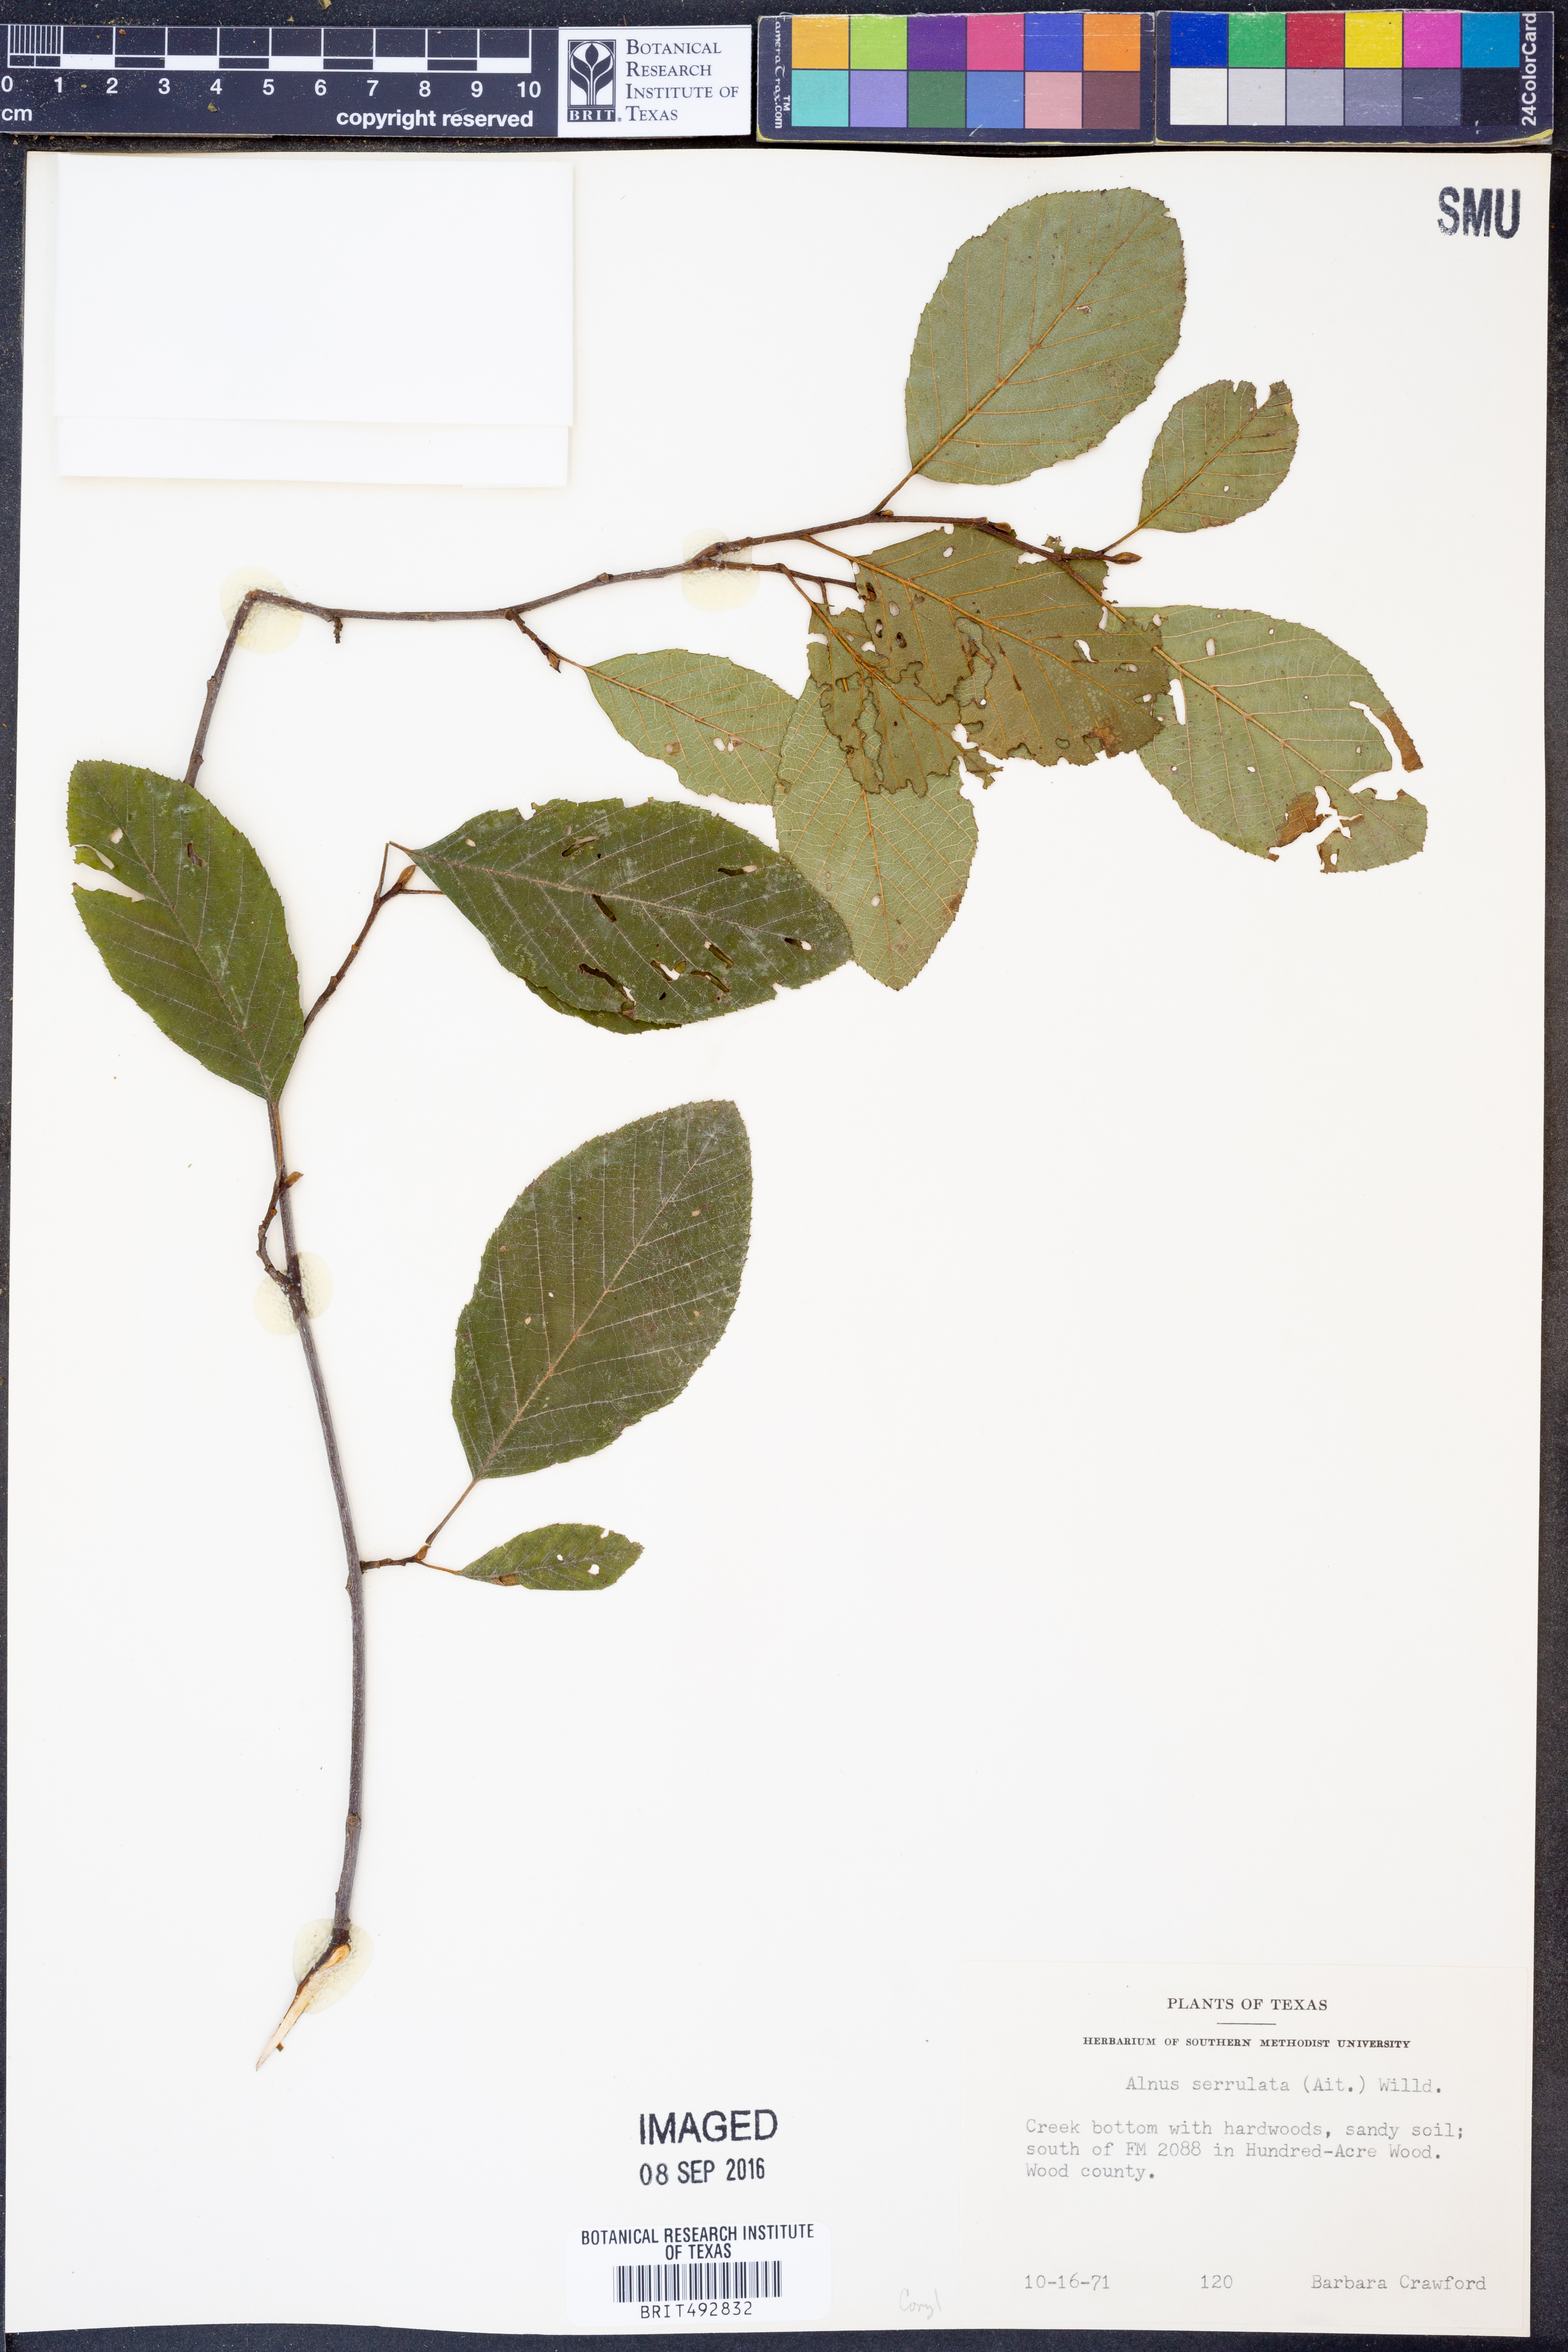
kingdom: Plantae
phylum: Tracheophyta
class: Magnoliopsida
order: Fagales
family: Betulaceae
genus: Alnus
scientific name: Alnus serrulata
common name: Hazel alder
